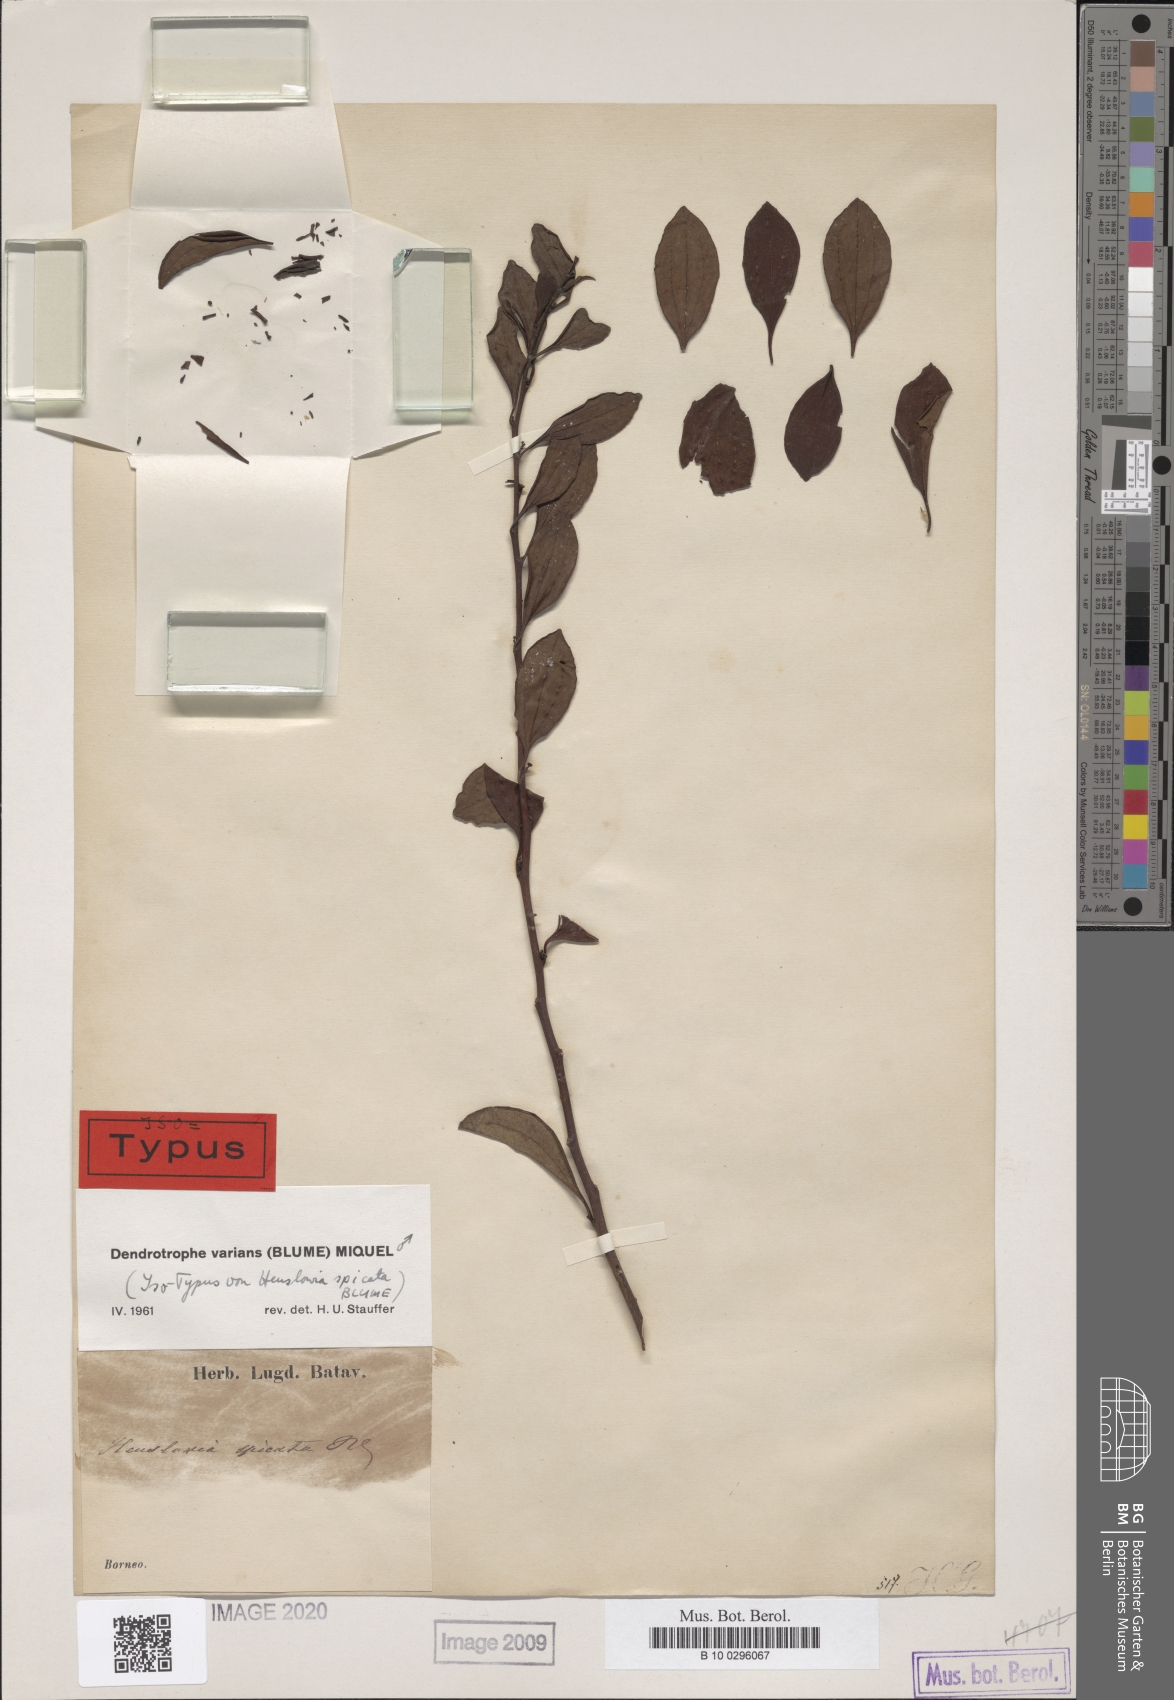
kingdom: Plantae
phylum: Tracheophyta
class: Magnoliopsida
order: Santalales
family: Amphorogynaceae
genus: Dendrotrophe
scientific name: Dendrotrophe varians
